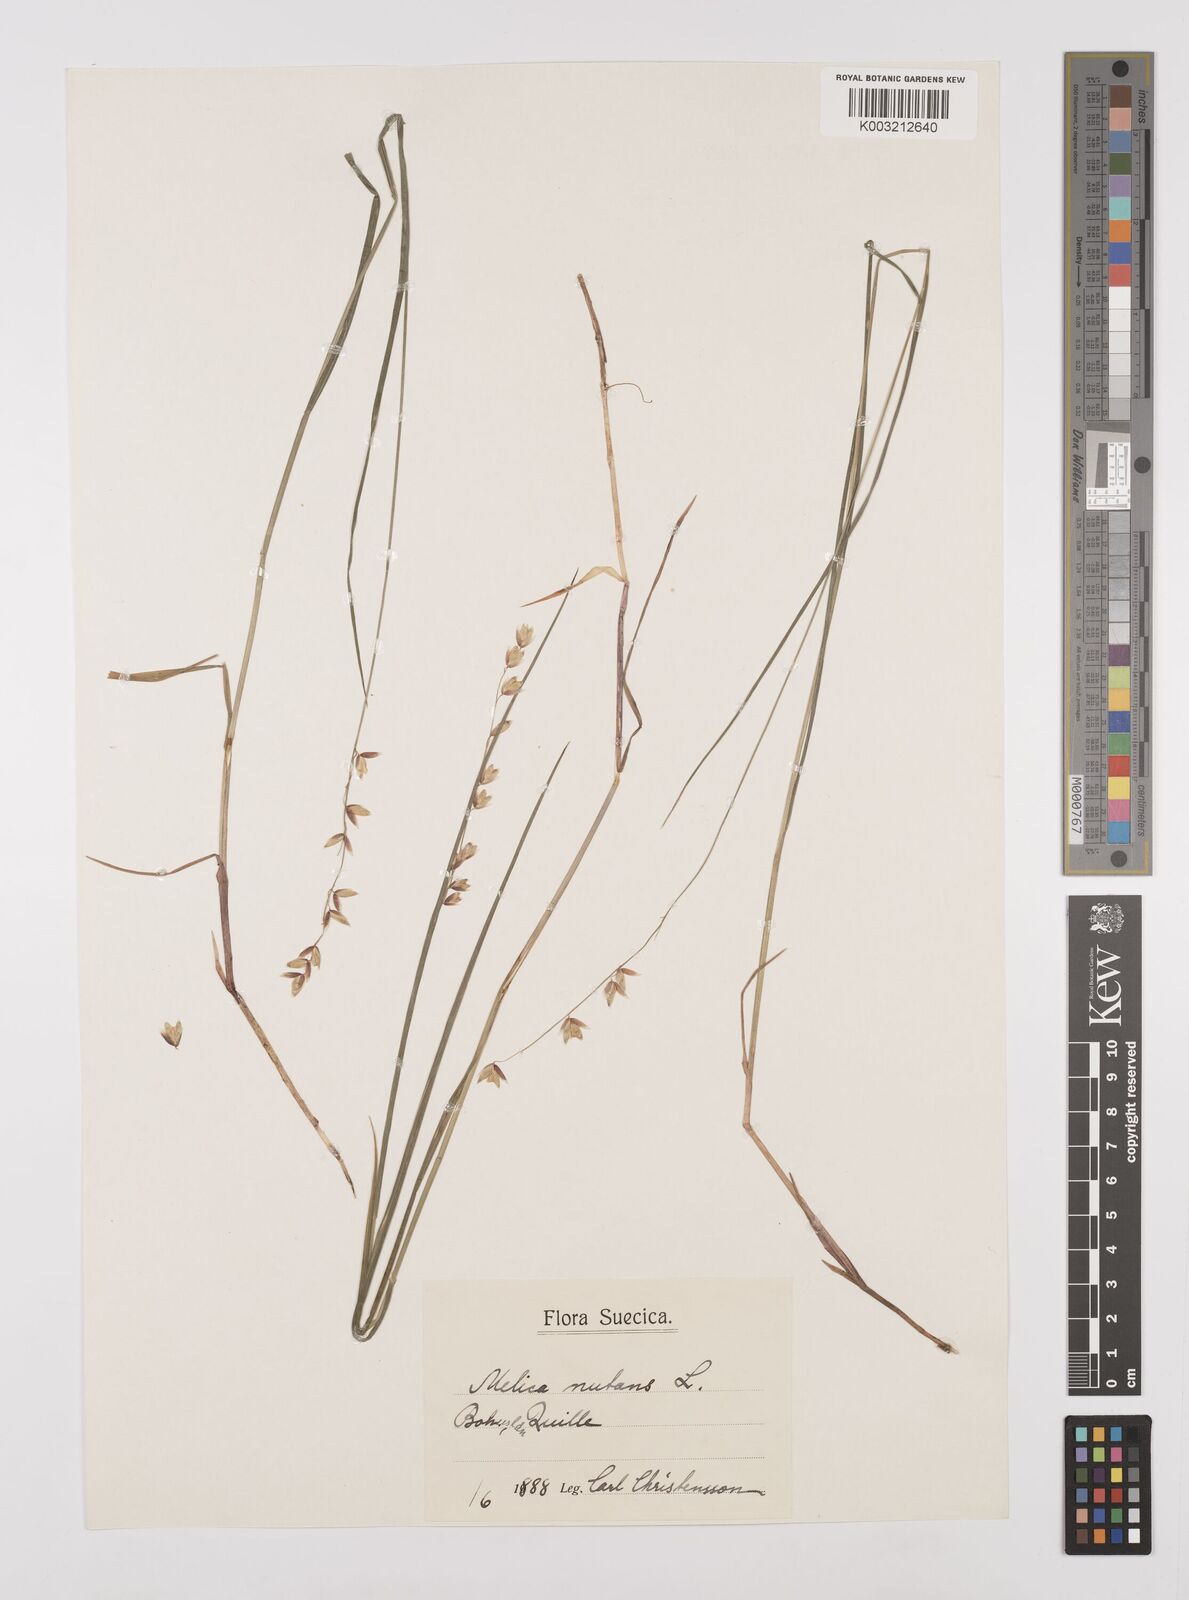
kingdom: Plantae
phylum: Tracheophyta
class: Liliopsida
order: Poales
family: Poaceae
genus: Melica
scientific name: Melica
